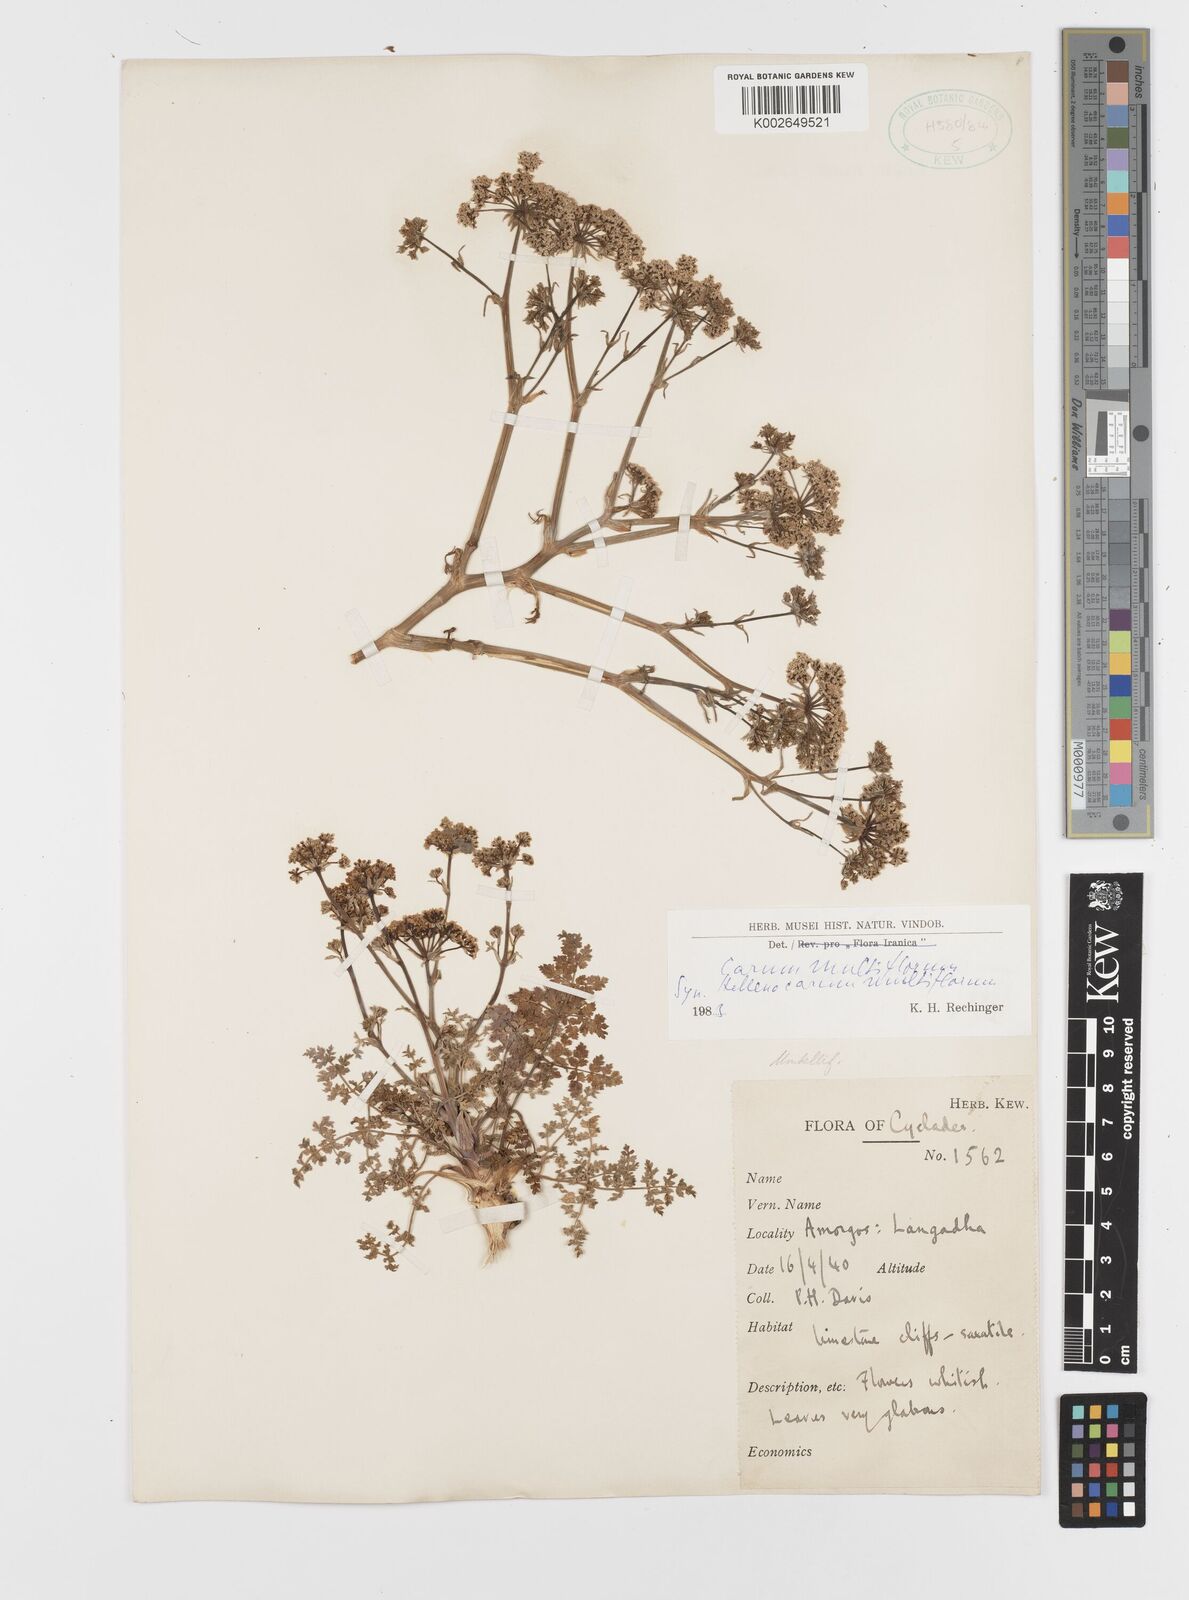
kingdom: Plantae
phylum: Tracheophyta
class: Magnoliopsida
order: Apiales
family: Apiaceae
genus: Hellenocarum
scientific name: Hellenocarum multiflorum
